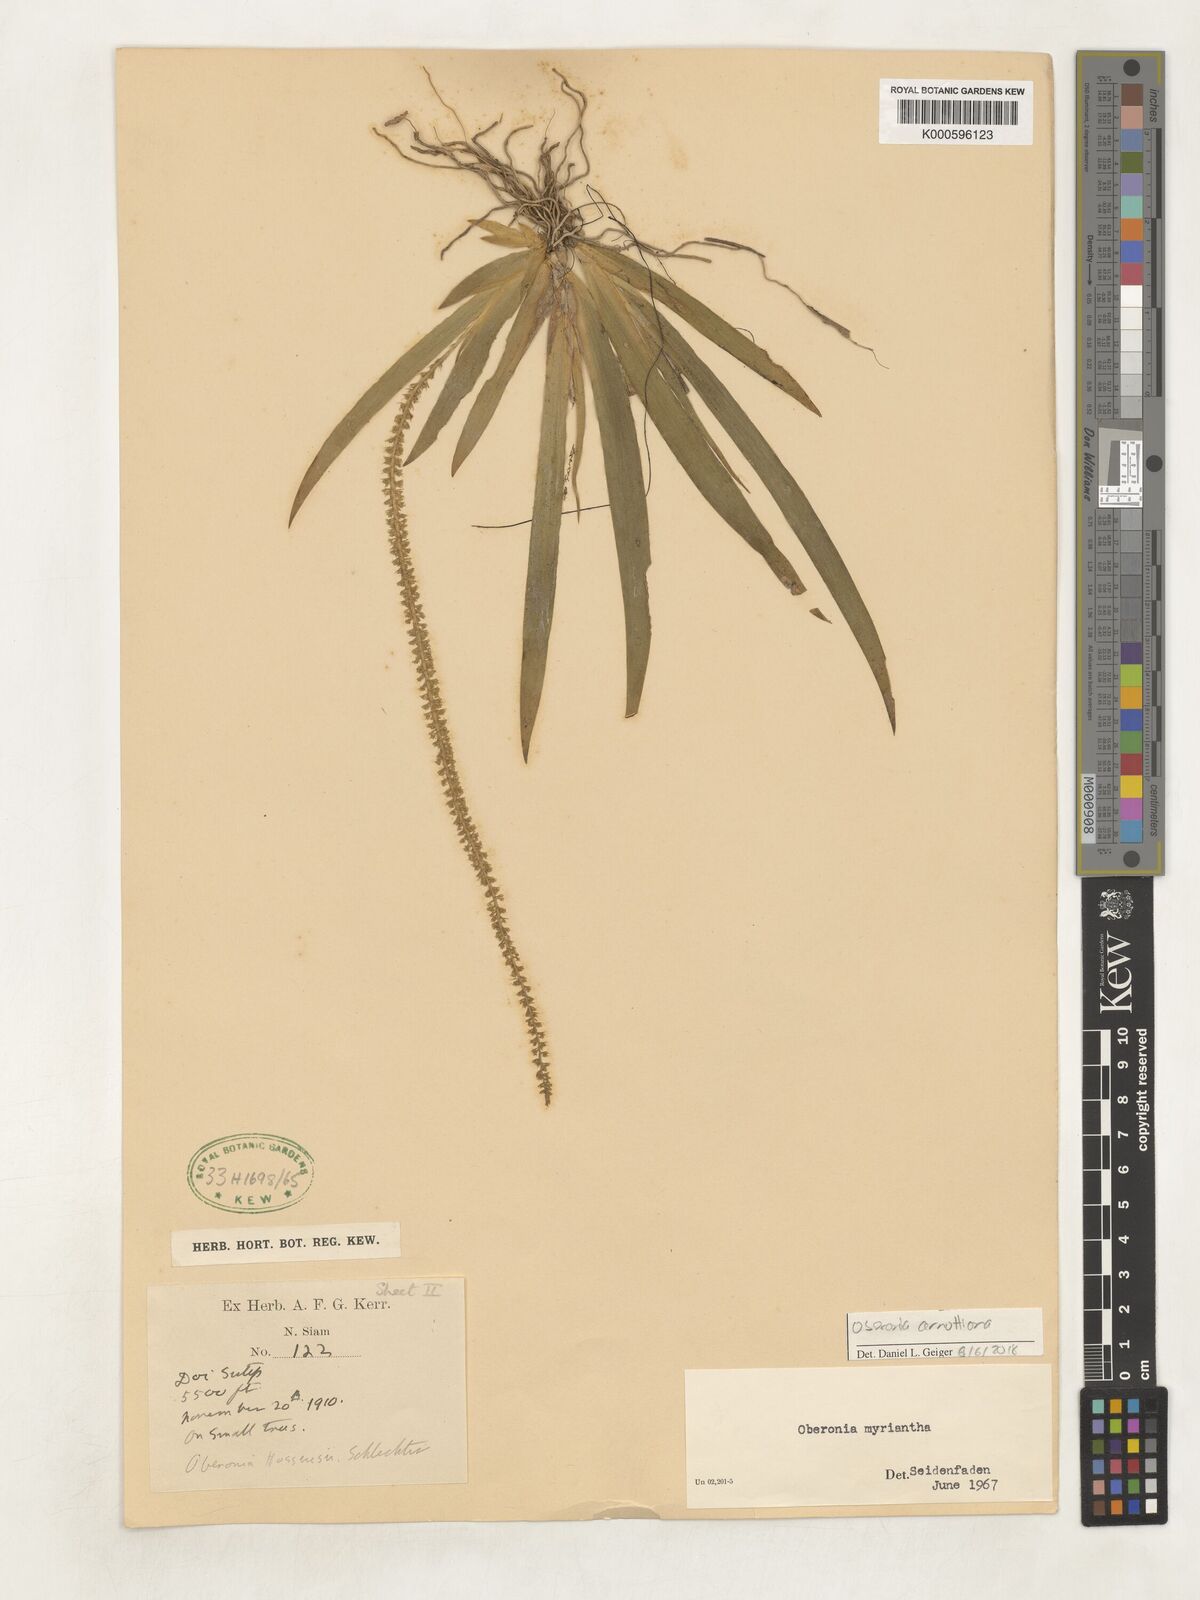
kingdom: Plantae
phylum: Tracheophyta
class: Liliopsida
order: Asparagales
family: Orchidaceae
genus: Oberonia
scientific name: Oberonia acaulis
